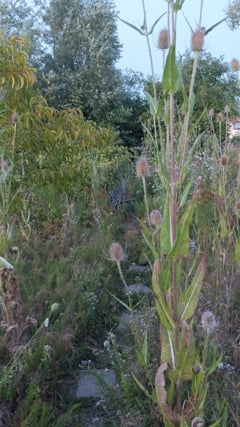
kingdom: Animalia
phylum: Arthropoda
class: Insecta
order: Orthoptera
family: Gryllidae
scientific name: Gryllidae
